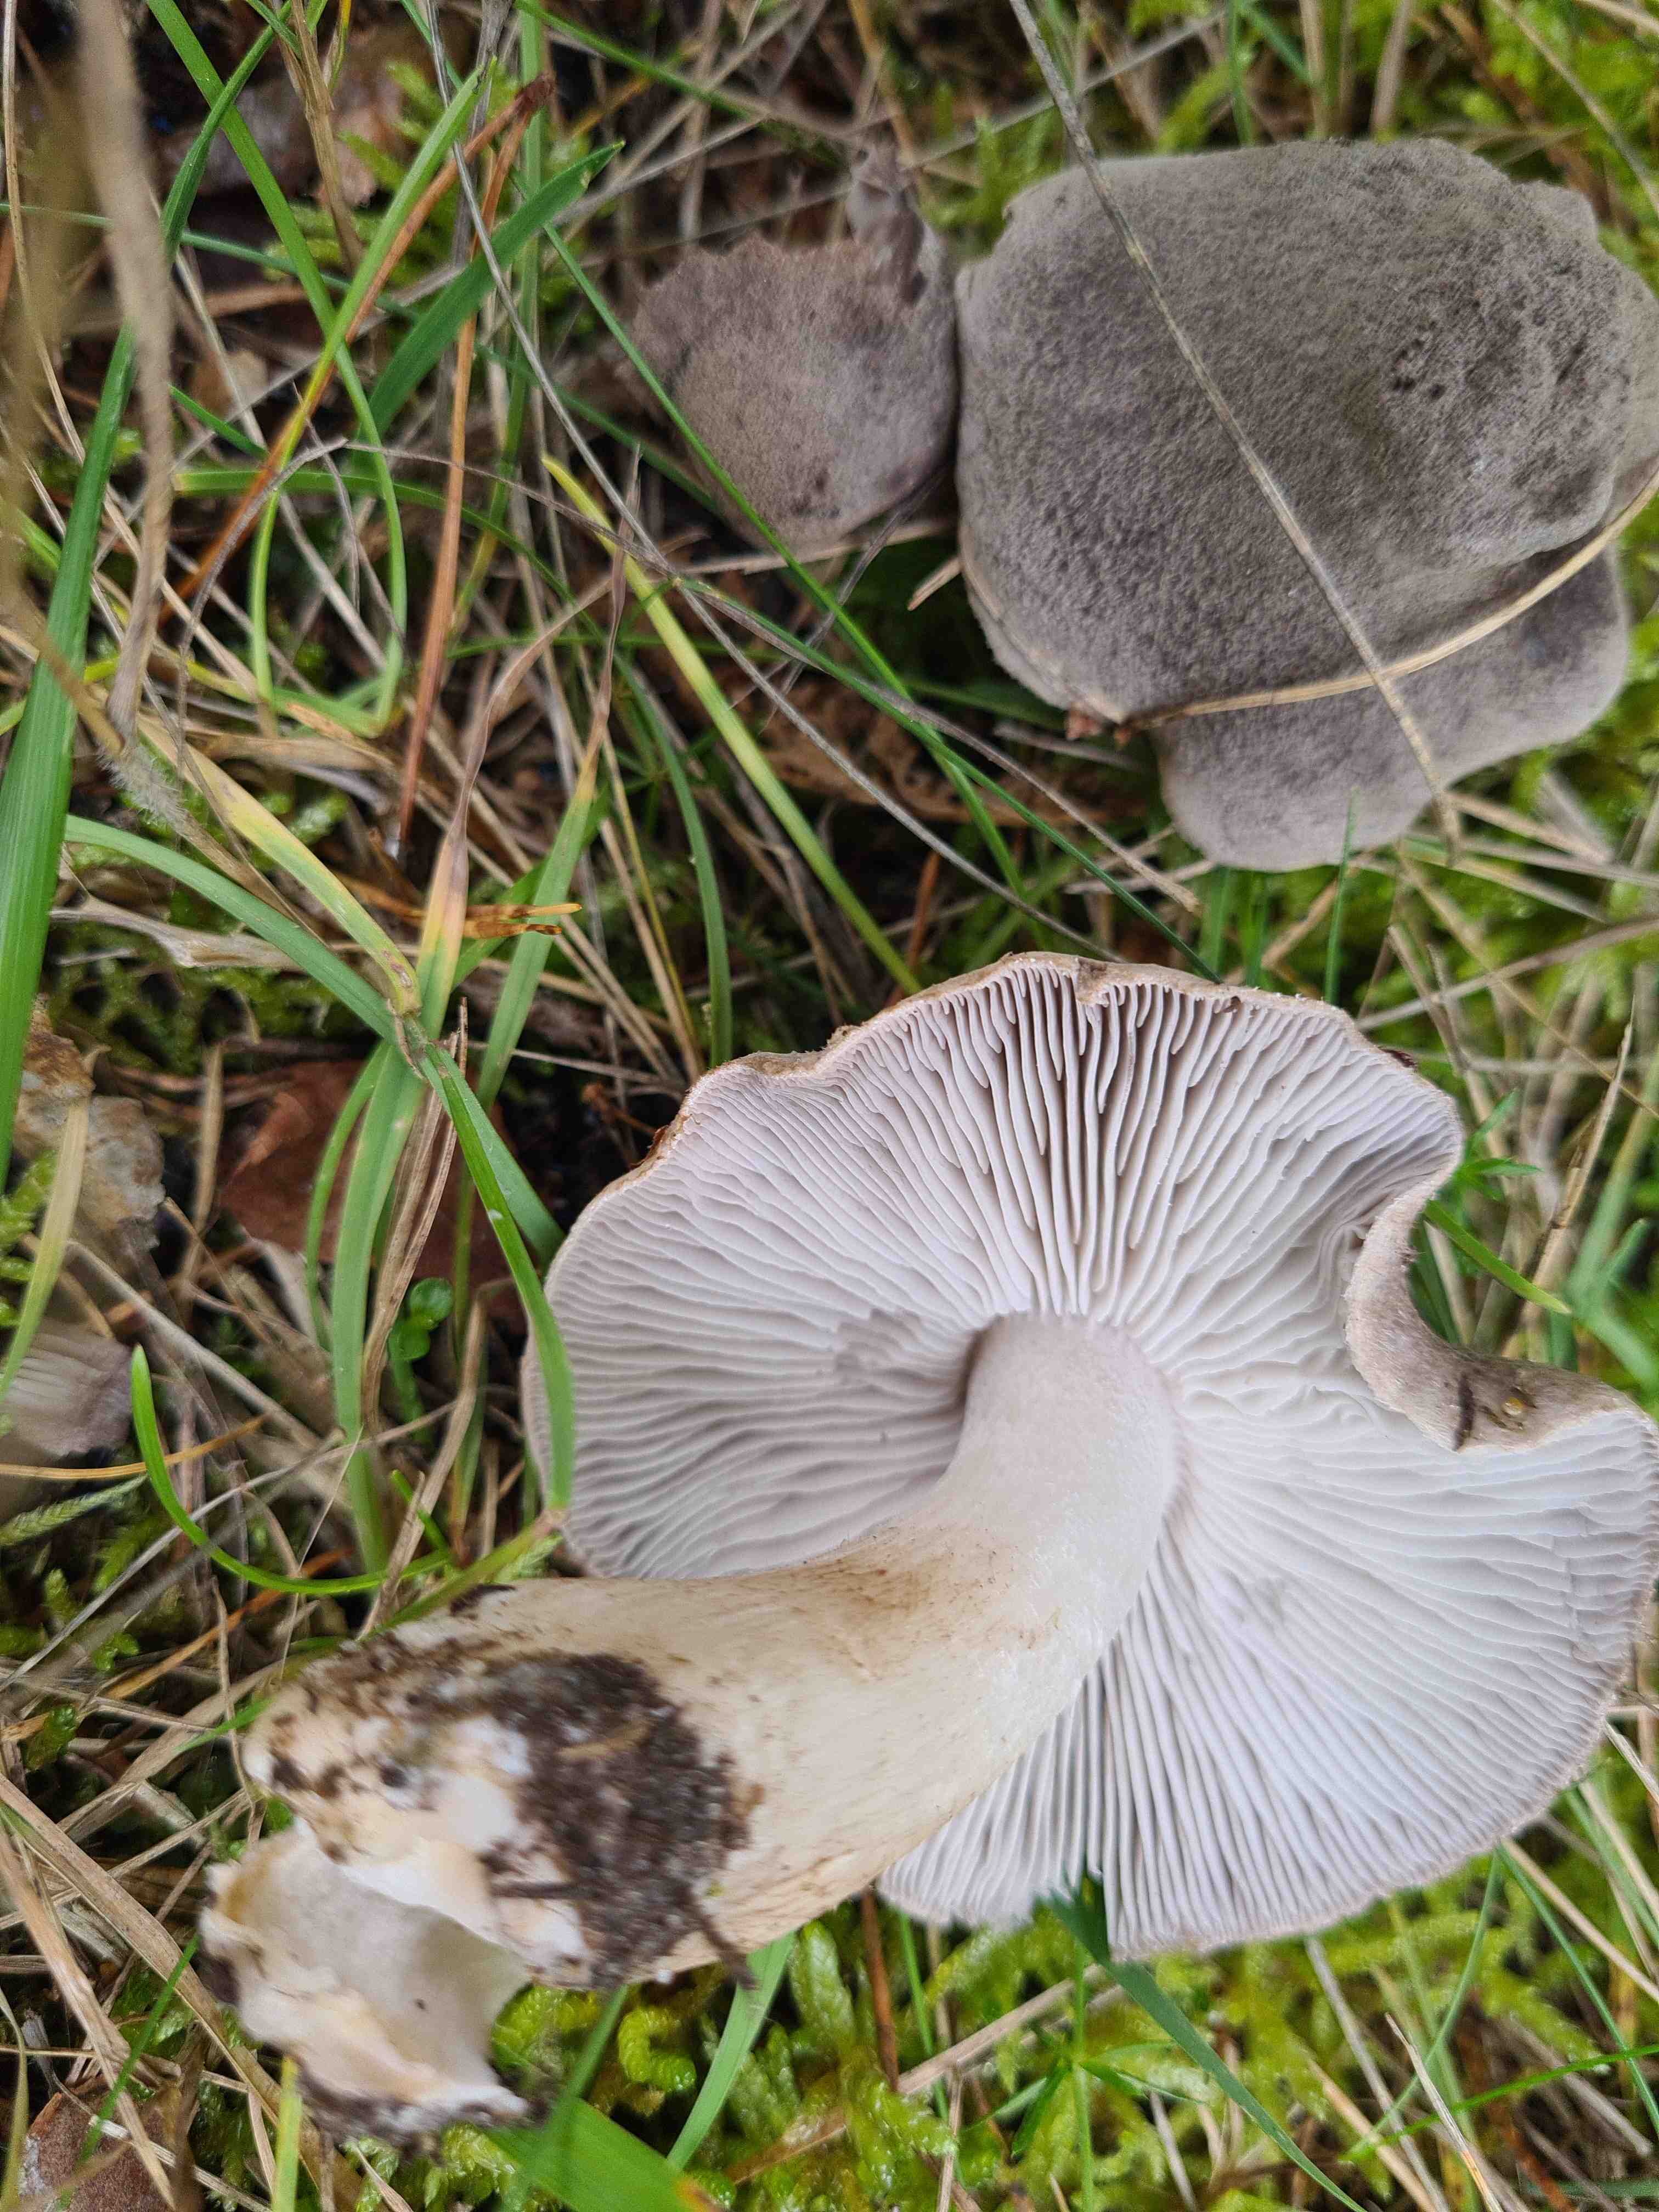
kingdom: Fungi
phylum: Basidiomycota
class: Agaricomycetes
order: Agaricales
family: Tricholomataceae
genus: Tricholoma
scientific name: Tricholoma terreum
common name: jordfarvet ridderhat
